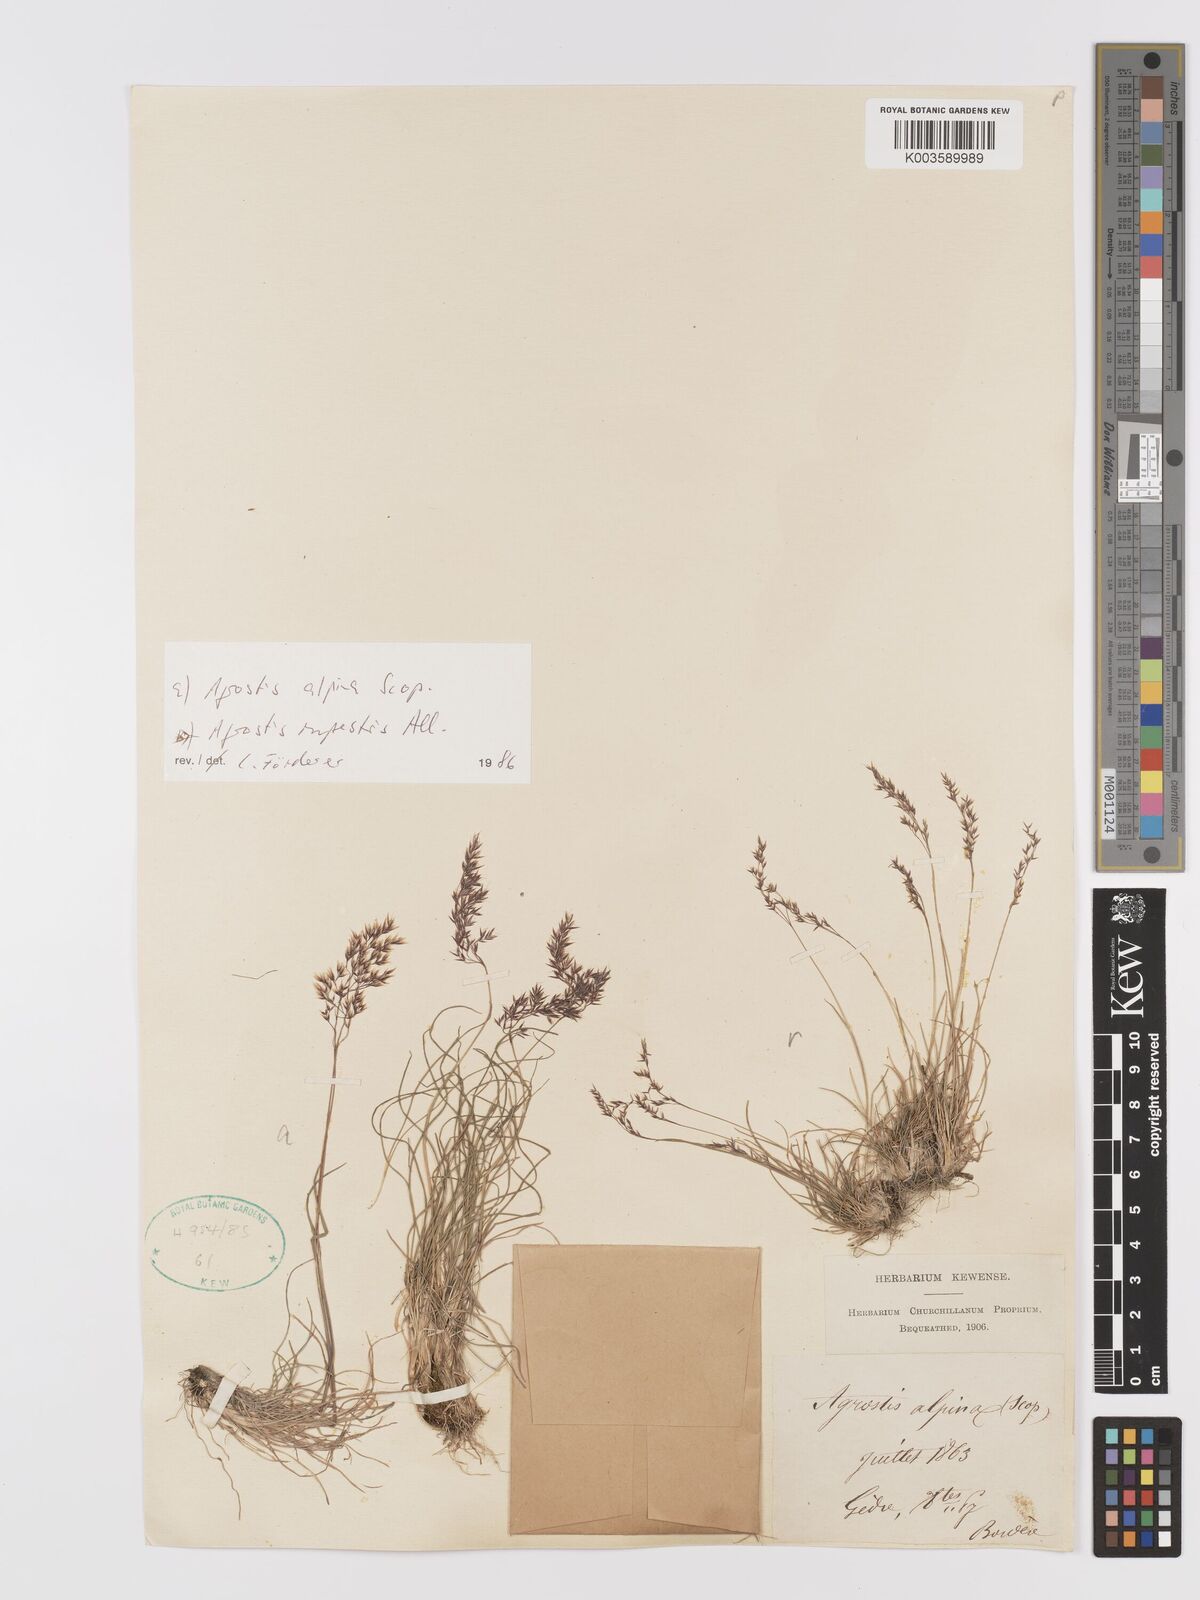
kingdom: Plantae
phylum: Tracheophyta
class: Liliopsida
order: Poales
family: Poaceae
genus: Alpagrostis
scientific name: Alpagrostis alpina
